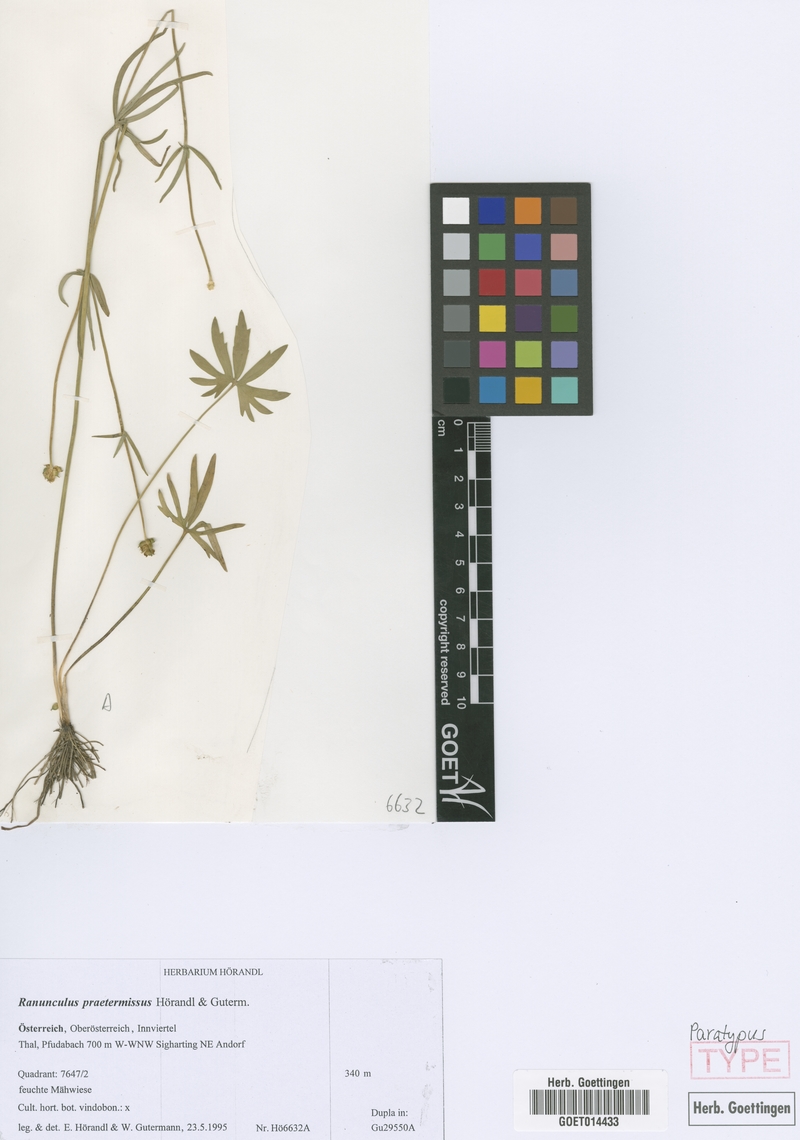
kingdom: Plantae
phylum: Tracheophyta
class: Magnoliopsida
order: Ranunculales
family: Ranunculaceae
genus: Ranunculus
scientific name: Ranunculus praetermissus
